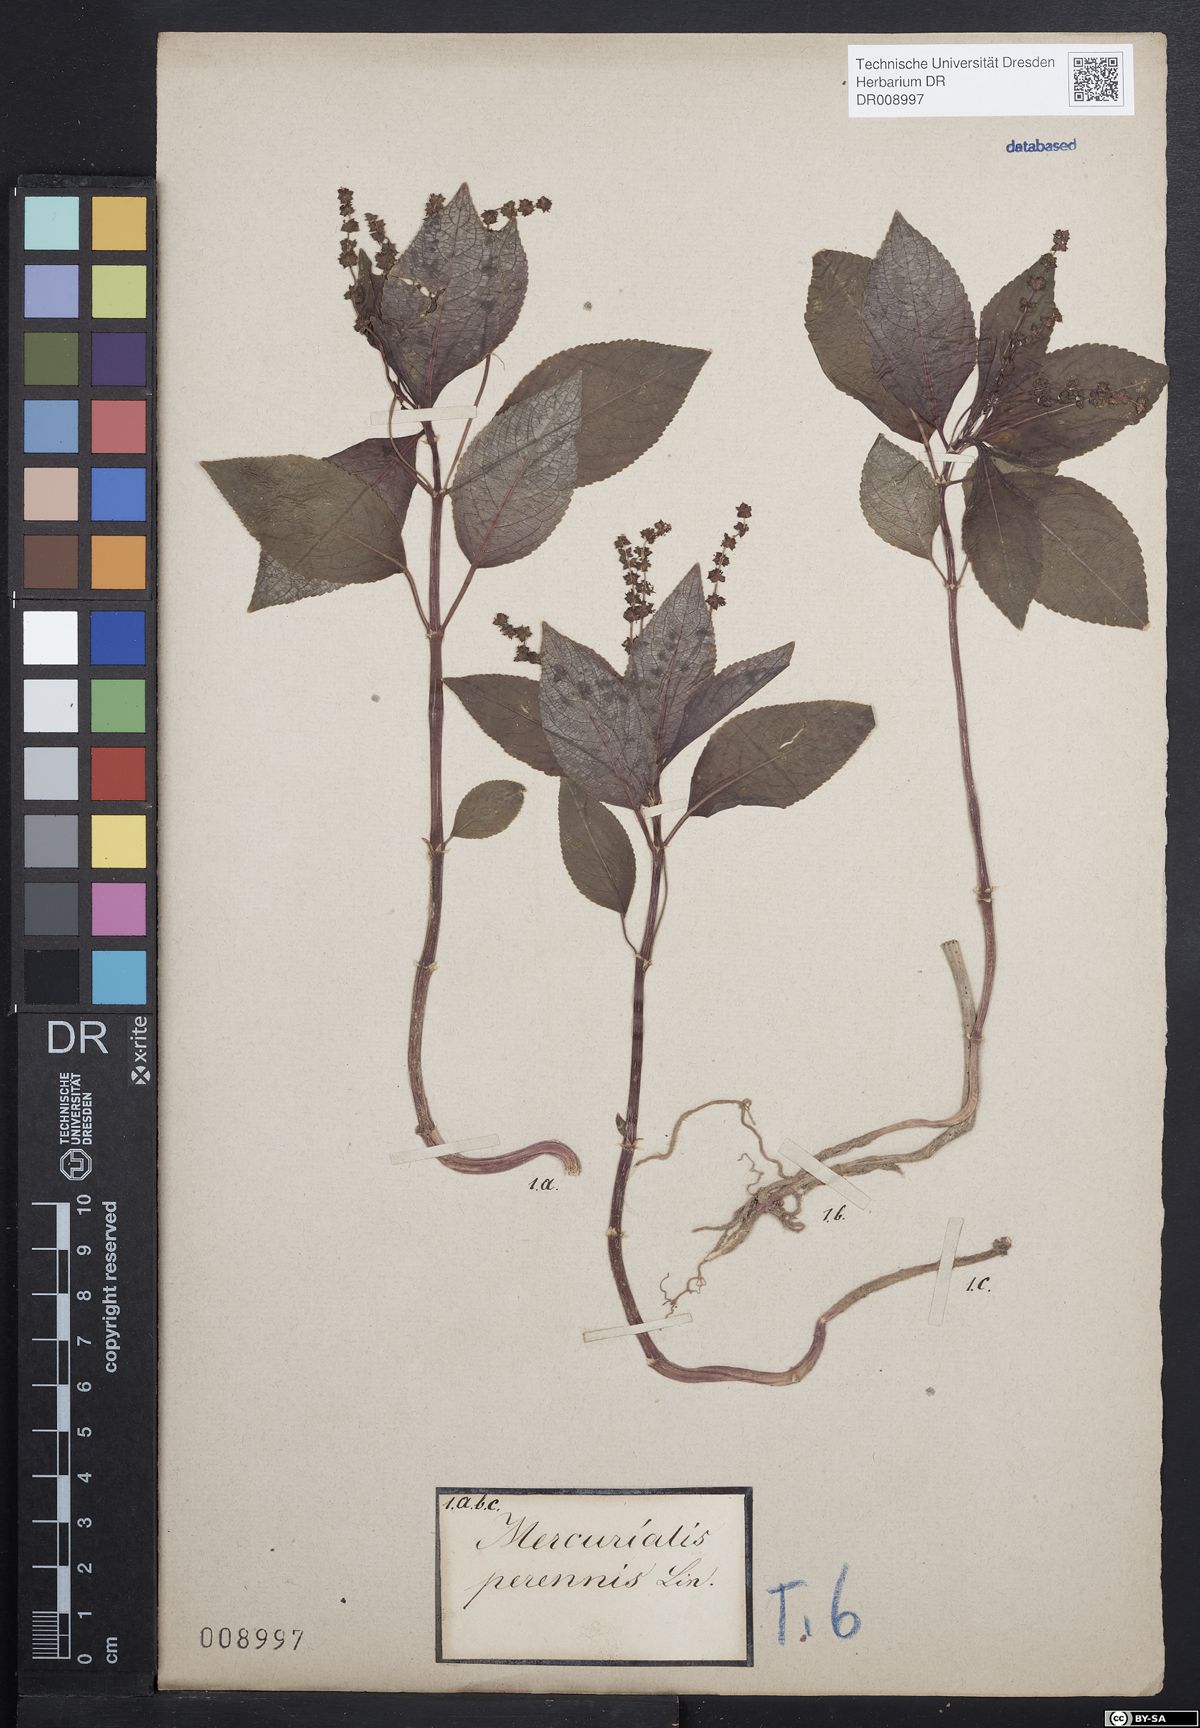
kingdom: Plantae
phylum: Tracheophyta
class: Magnoliopsida
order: Malpighiales
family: Euphorbiaceae
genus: Mercurialis
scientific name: Mercurialis perennis
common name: Dog mercury
